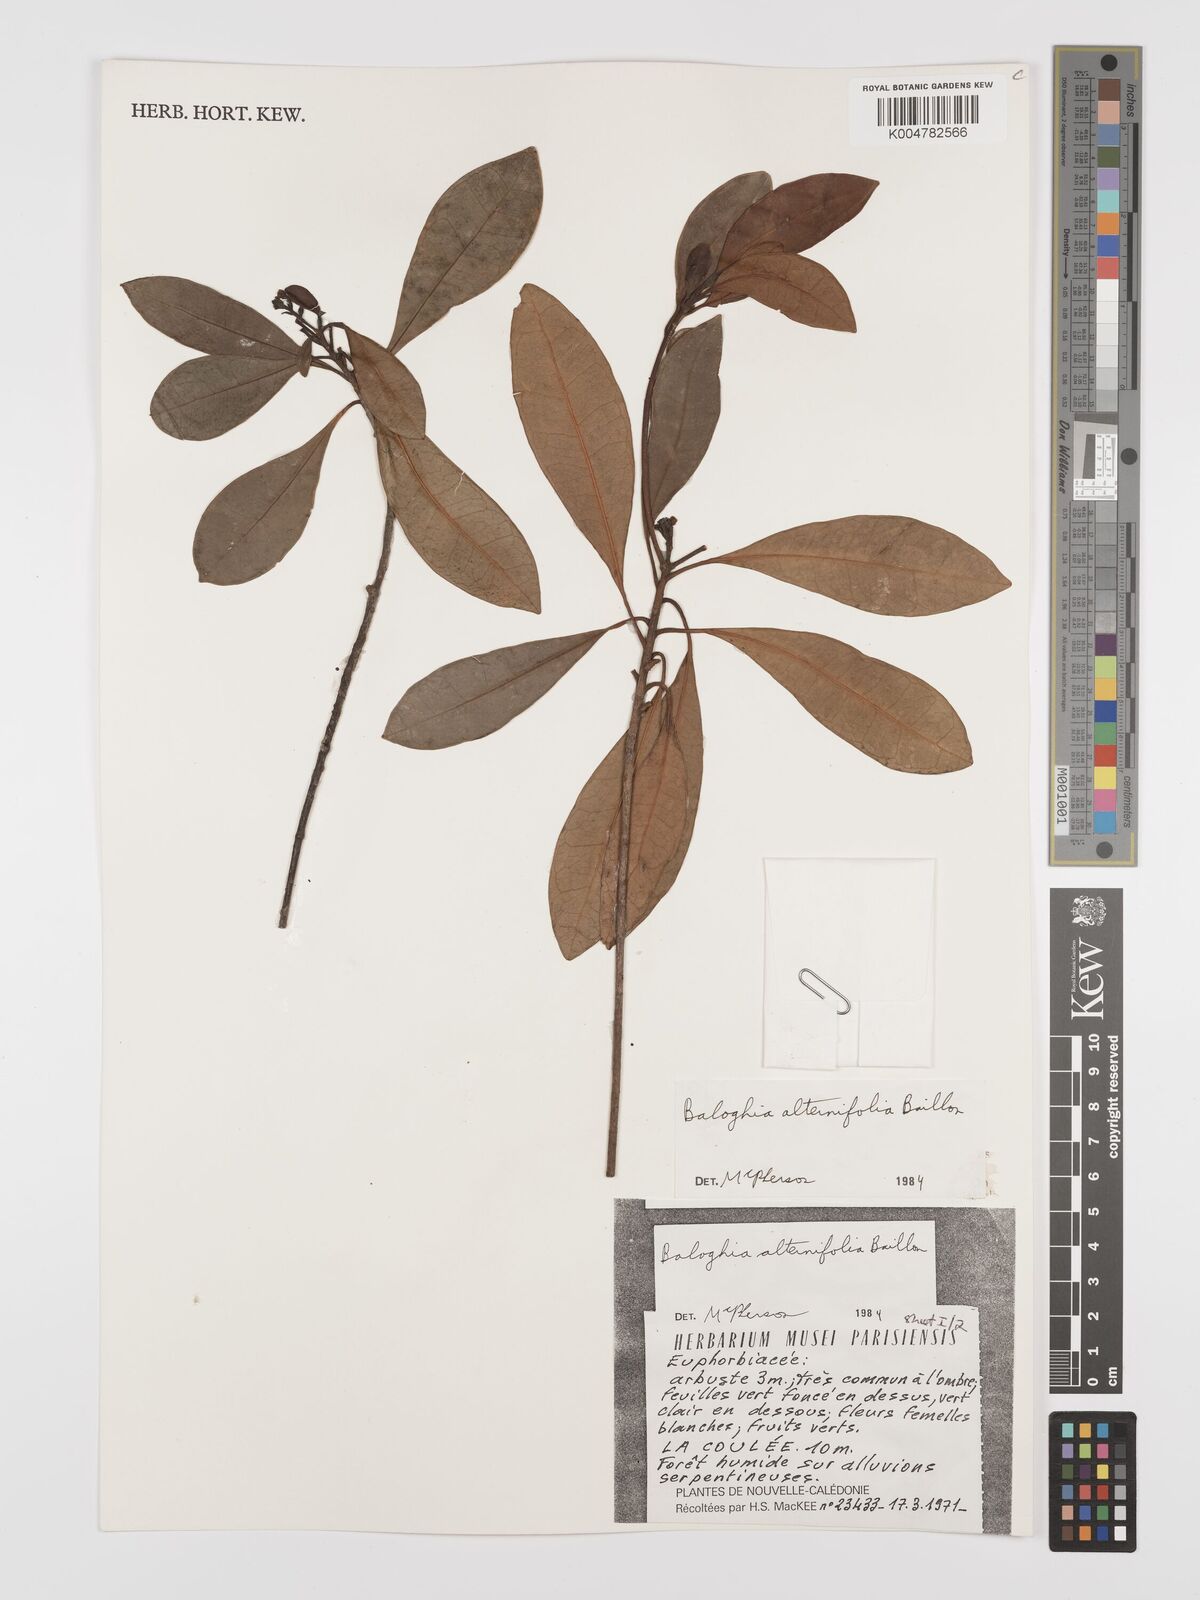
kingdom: Plantae
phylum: Tracheophyta
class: Magnoliopsida
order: Malpighiales
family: Euphorbiaceae
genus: Baloghia
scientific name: Baloghia alternifolia
